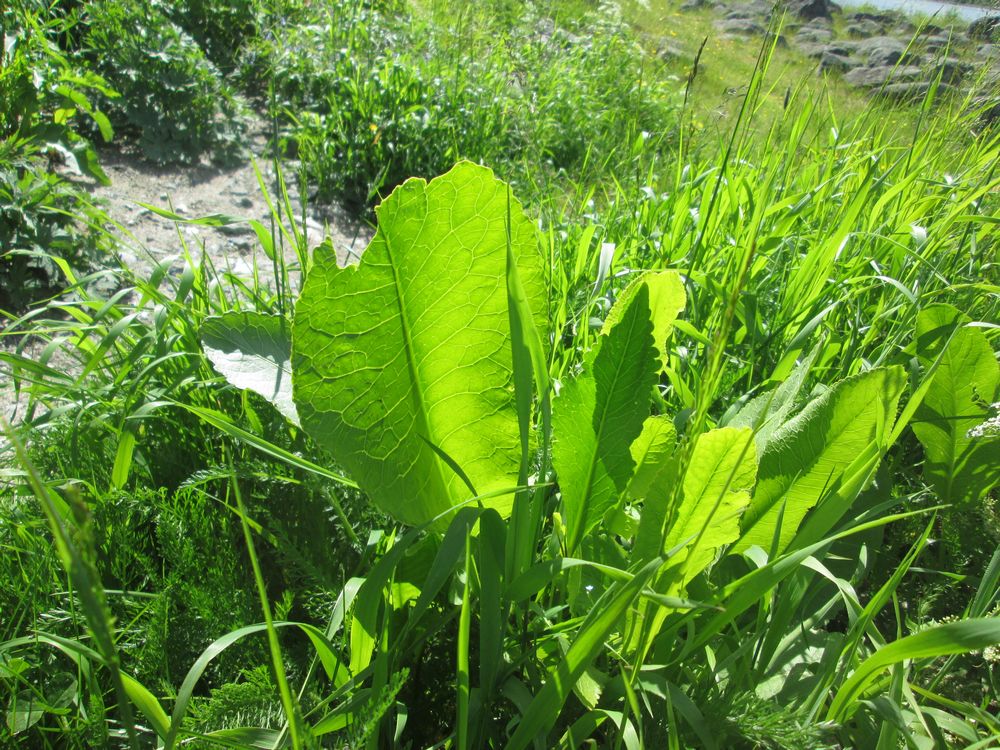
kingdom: Plantae
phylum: Tracheophyta
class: Magnoliopsida
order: Brassicales
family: Brassicaceae
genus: Armoracia
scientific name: Armoracia rusticana
